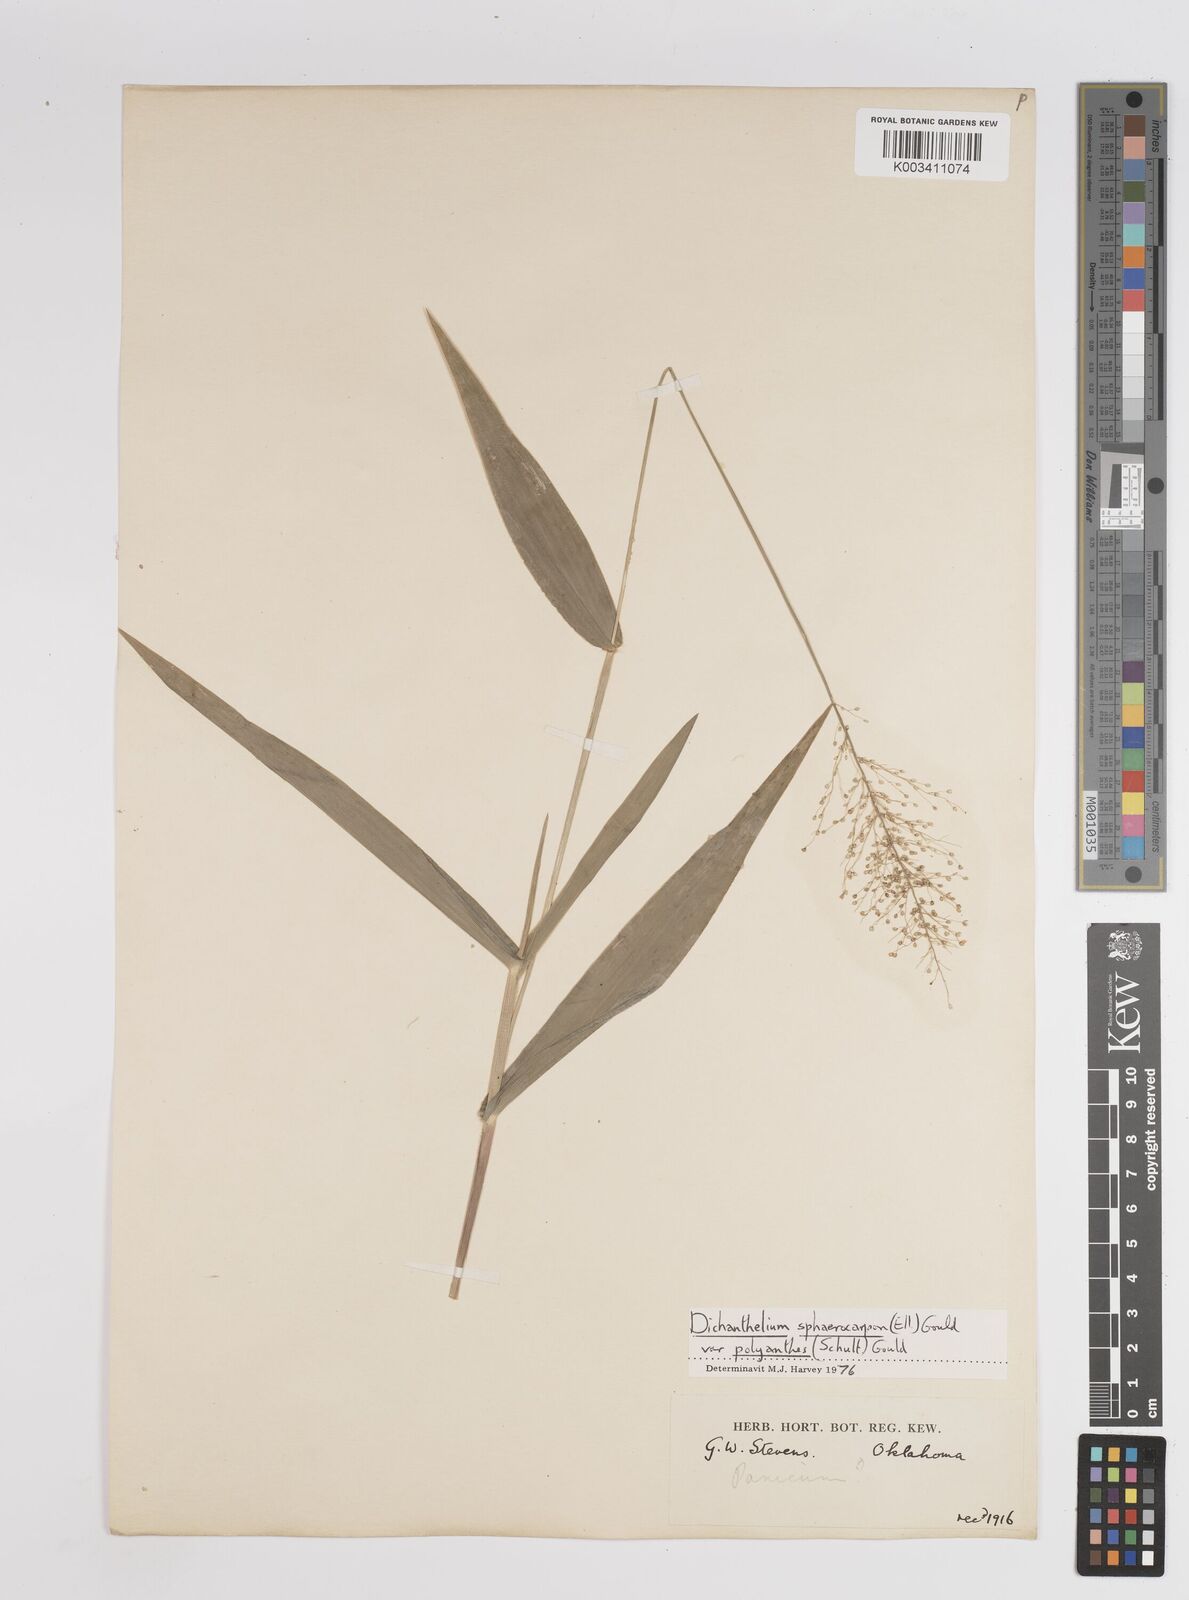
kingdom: Plantae
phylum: Tracheophyta
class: Liliopsida
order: Poales
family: Poaceae
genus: Dichanthelium
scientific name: Dichanthelium polyanthes
